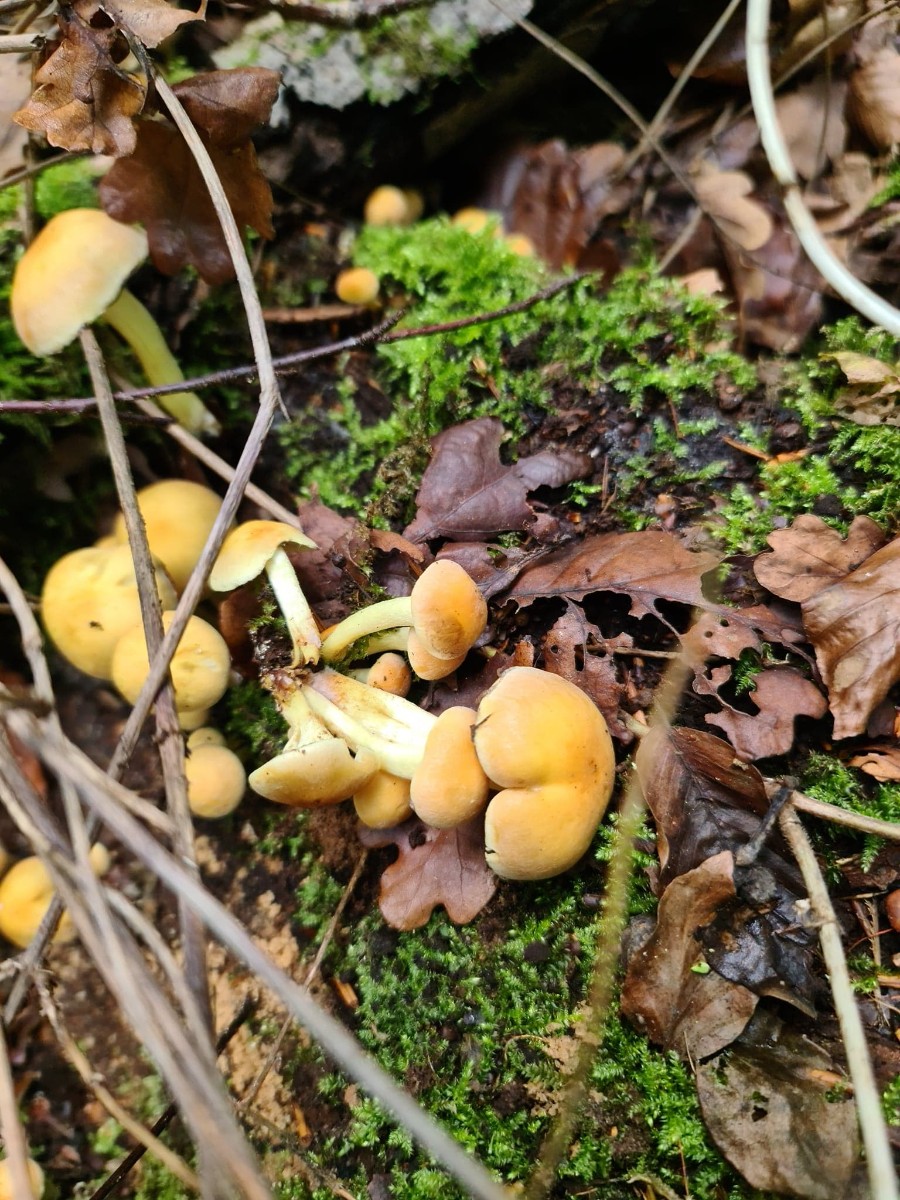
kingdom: Fungi
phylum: Basidiomycota
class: Agaricomycetes
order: Agaricales
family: Strophariaceae
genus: Hypholoma
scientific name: Hypholoma fasciculare
